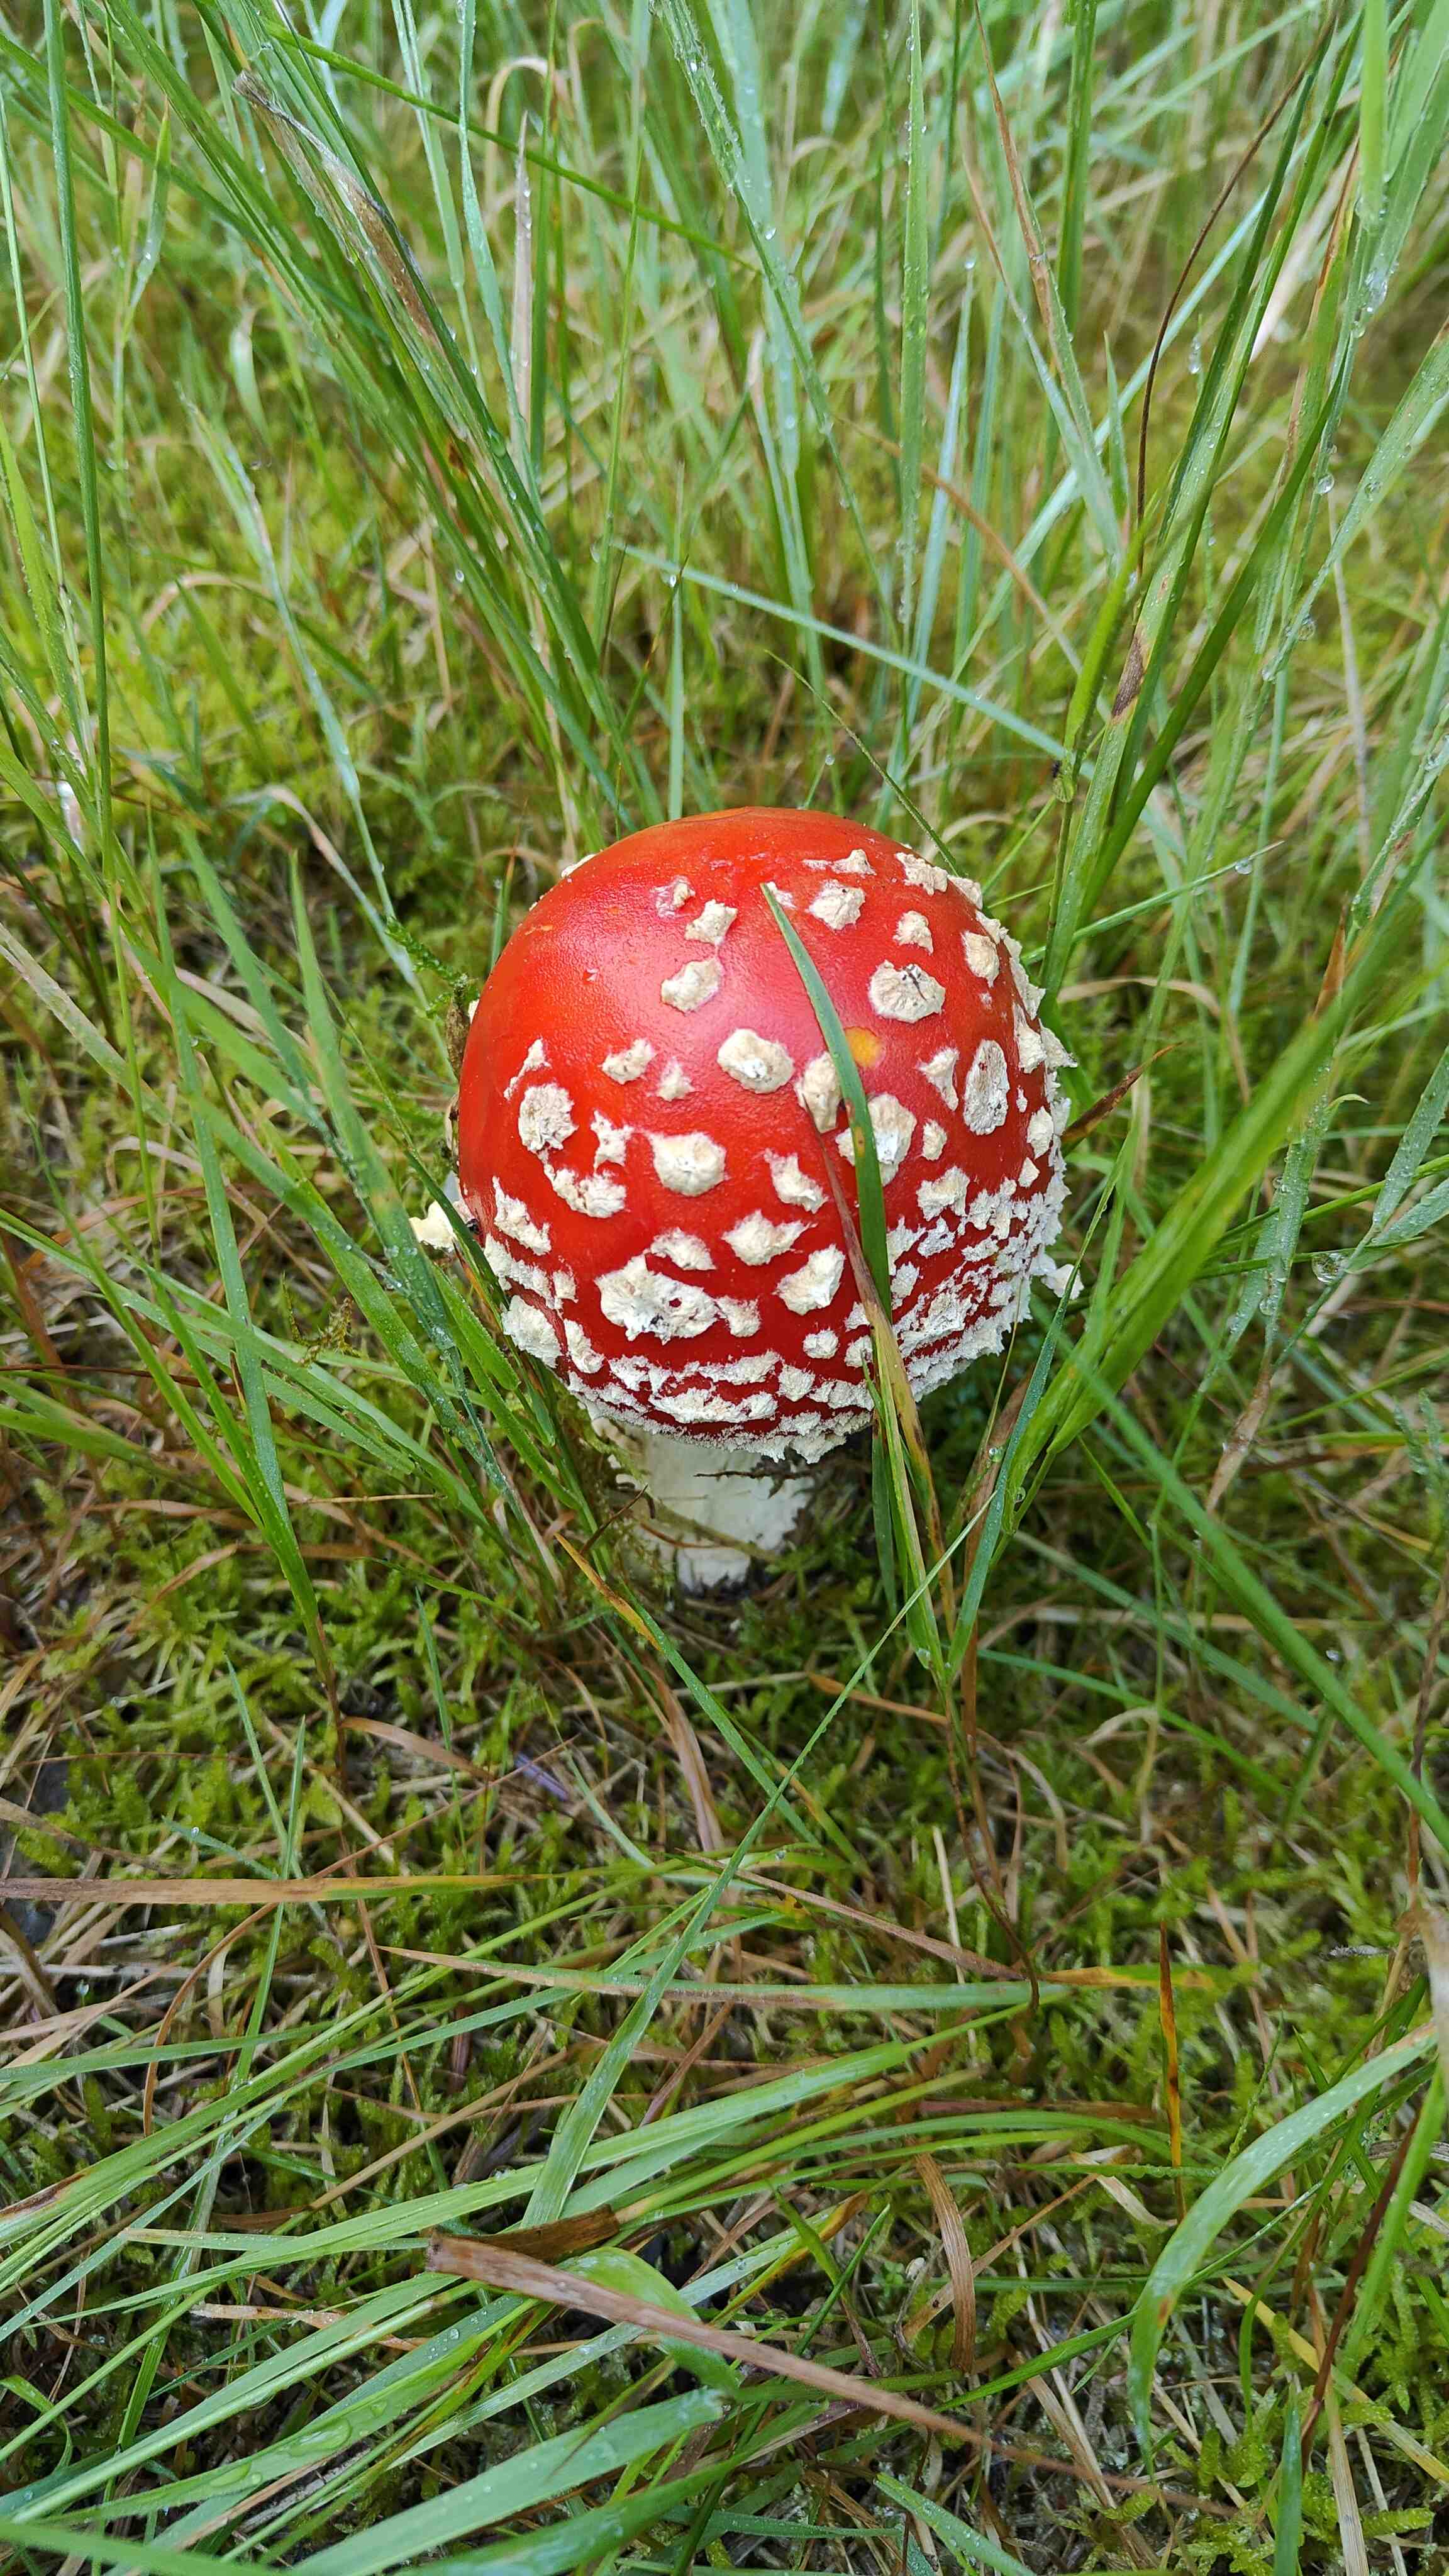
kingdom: Fungi
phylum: Basidiomycota
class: Agaricomycetes
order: Agaricales
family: Amanitaceae
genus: Amanita
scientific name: Amanita muscaria
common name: rød fluesvamp
